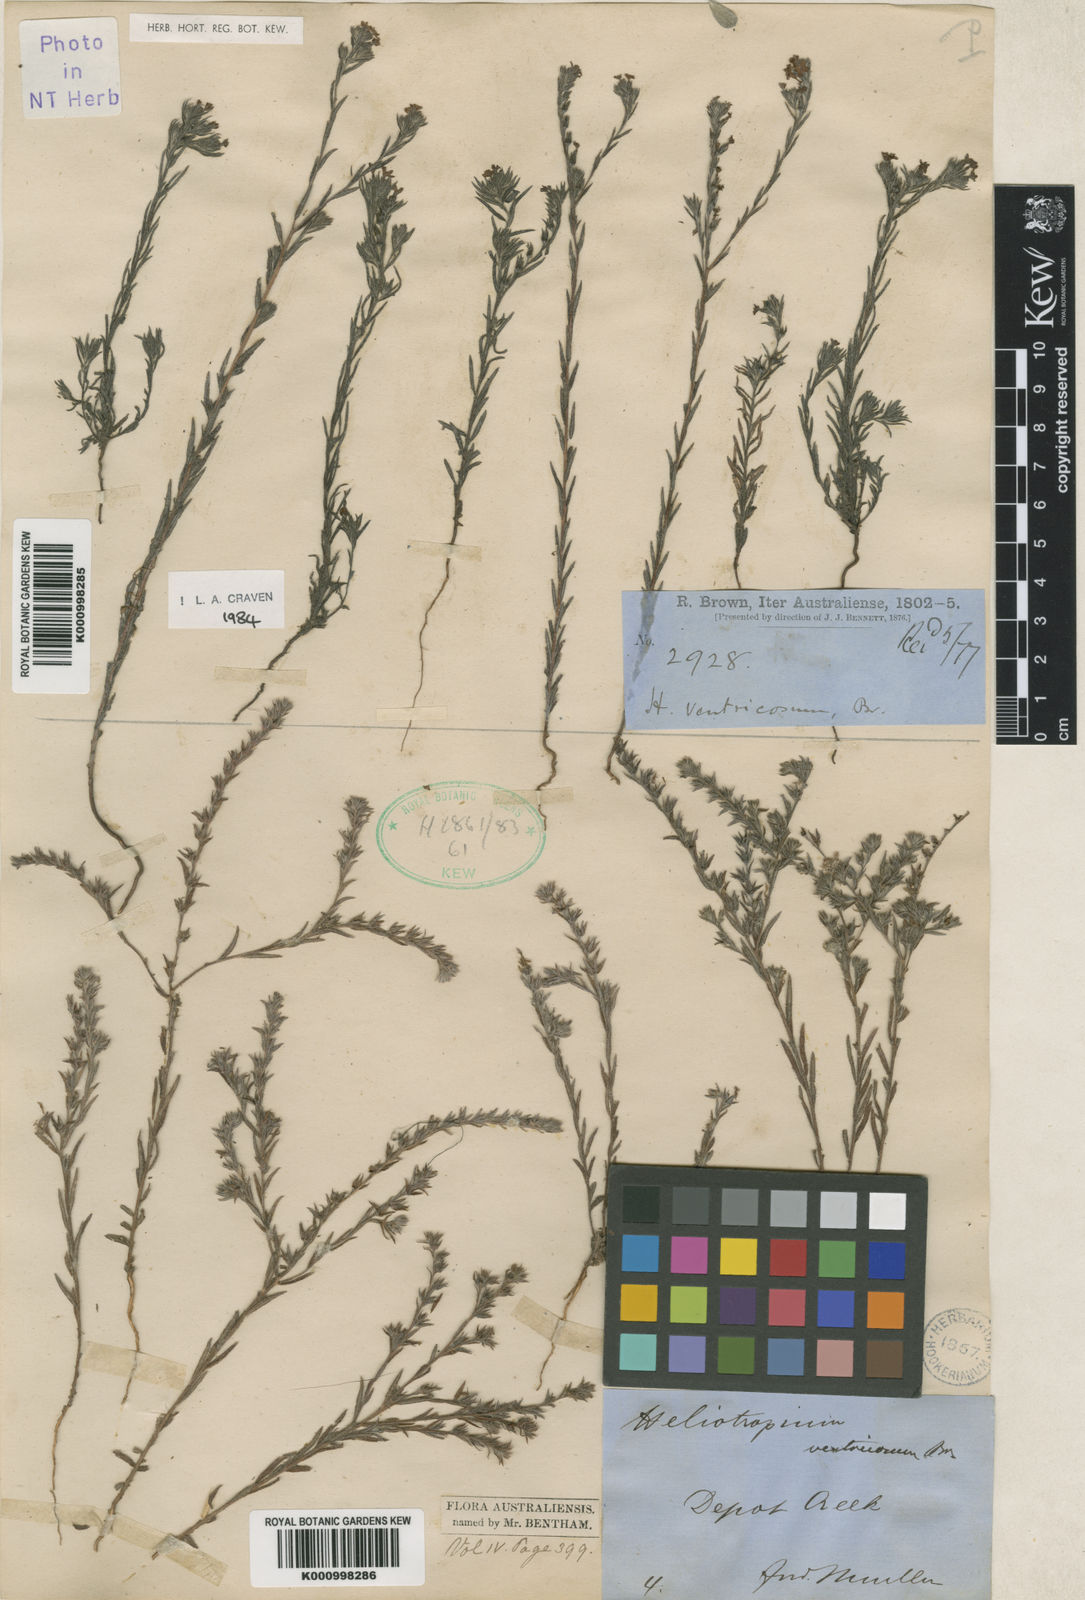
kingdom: Plantae
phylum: Tracheophyta
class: Magnoliopsida
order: Boraginales
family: Heliotropiaceae
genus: Euploca
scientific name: Euploca ventricosa
